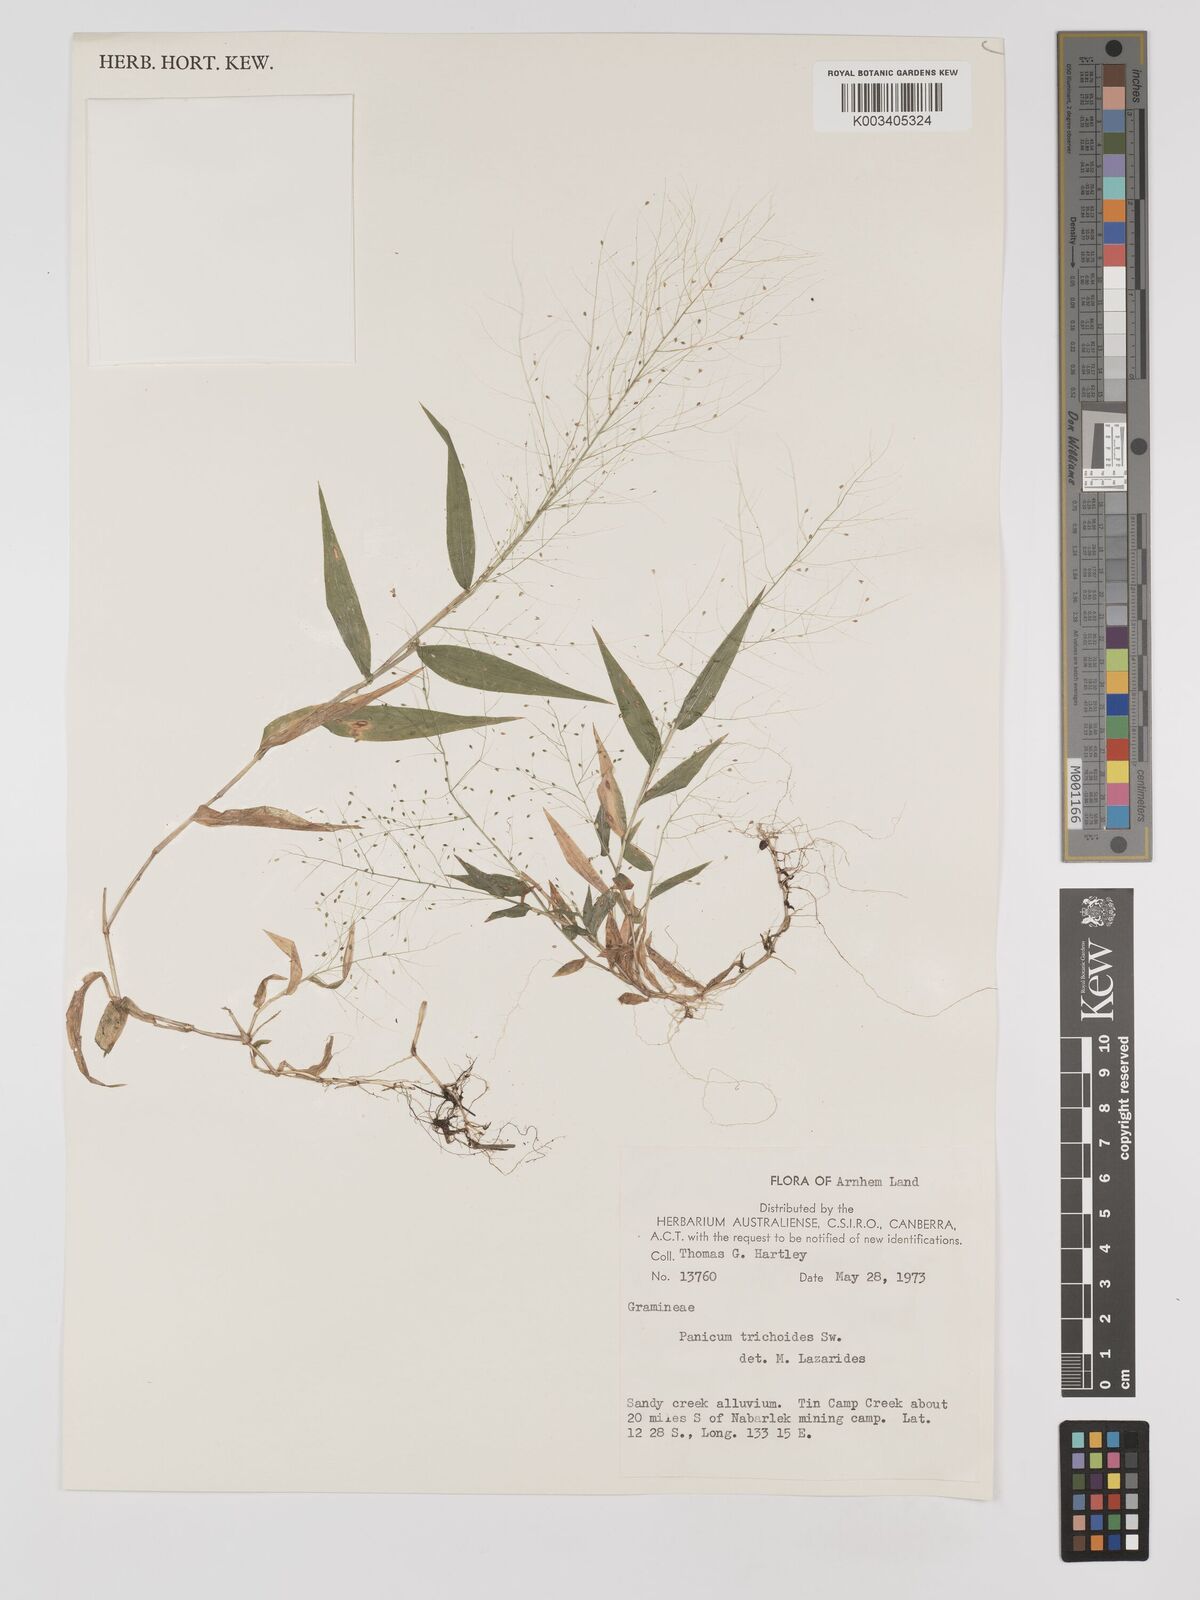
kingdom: Plantae
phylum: Tracheophyta
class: Liliopsida
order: Poales
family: Poaceae
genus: Panicum
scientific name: Panicum trichoides
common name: Tickle grass
